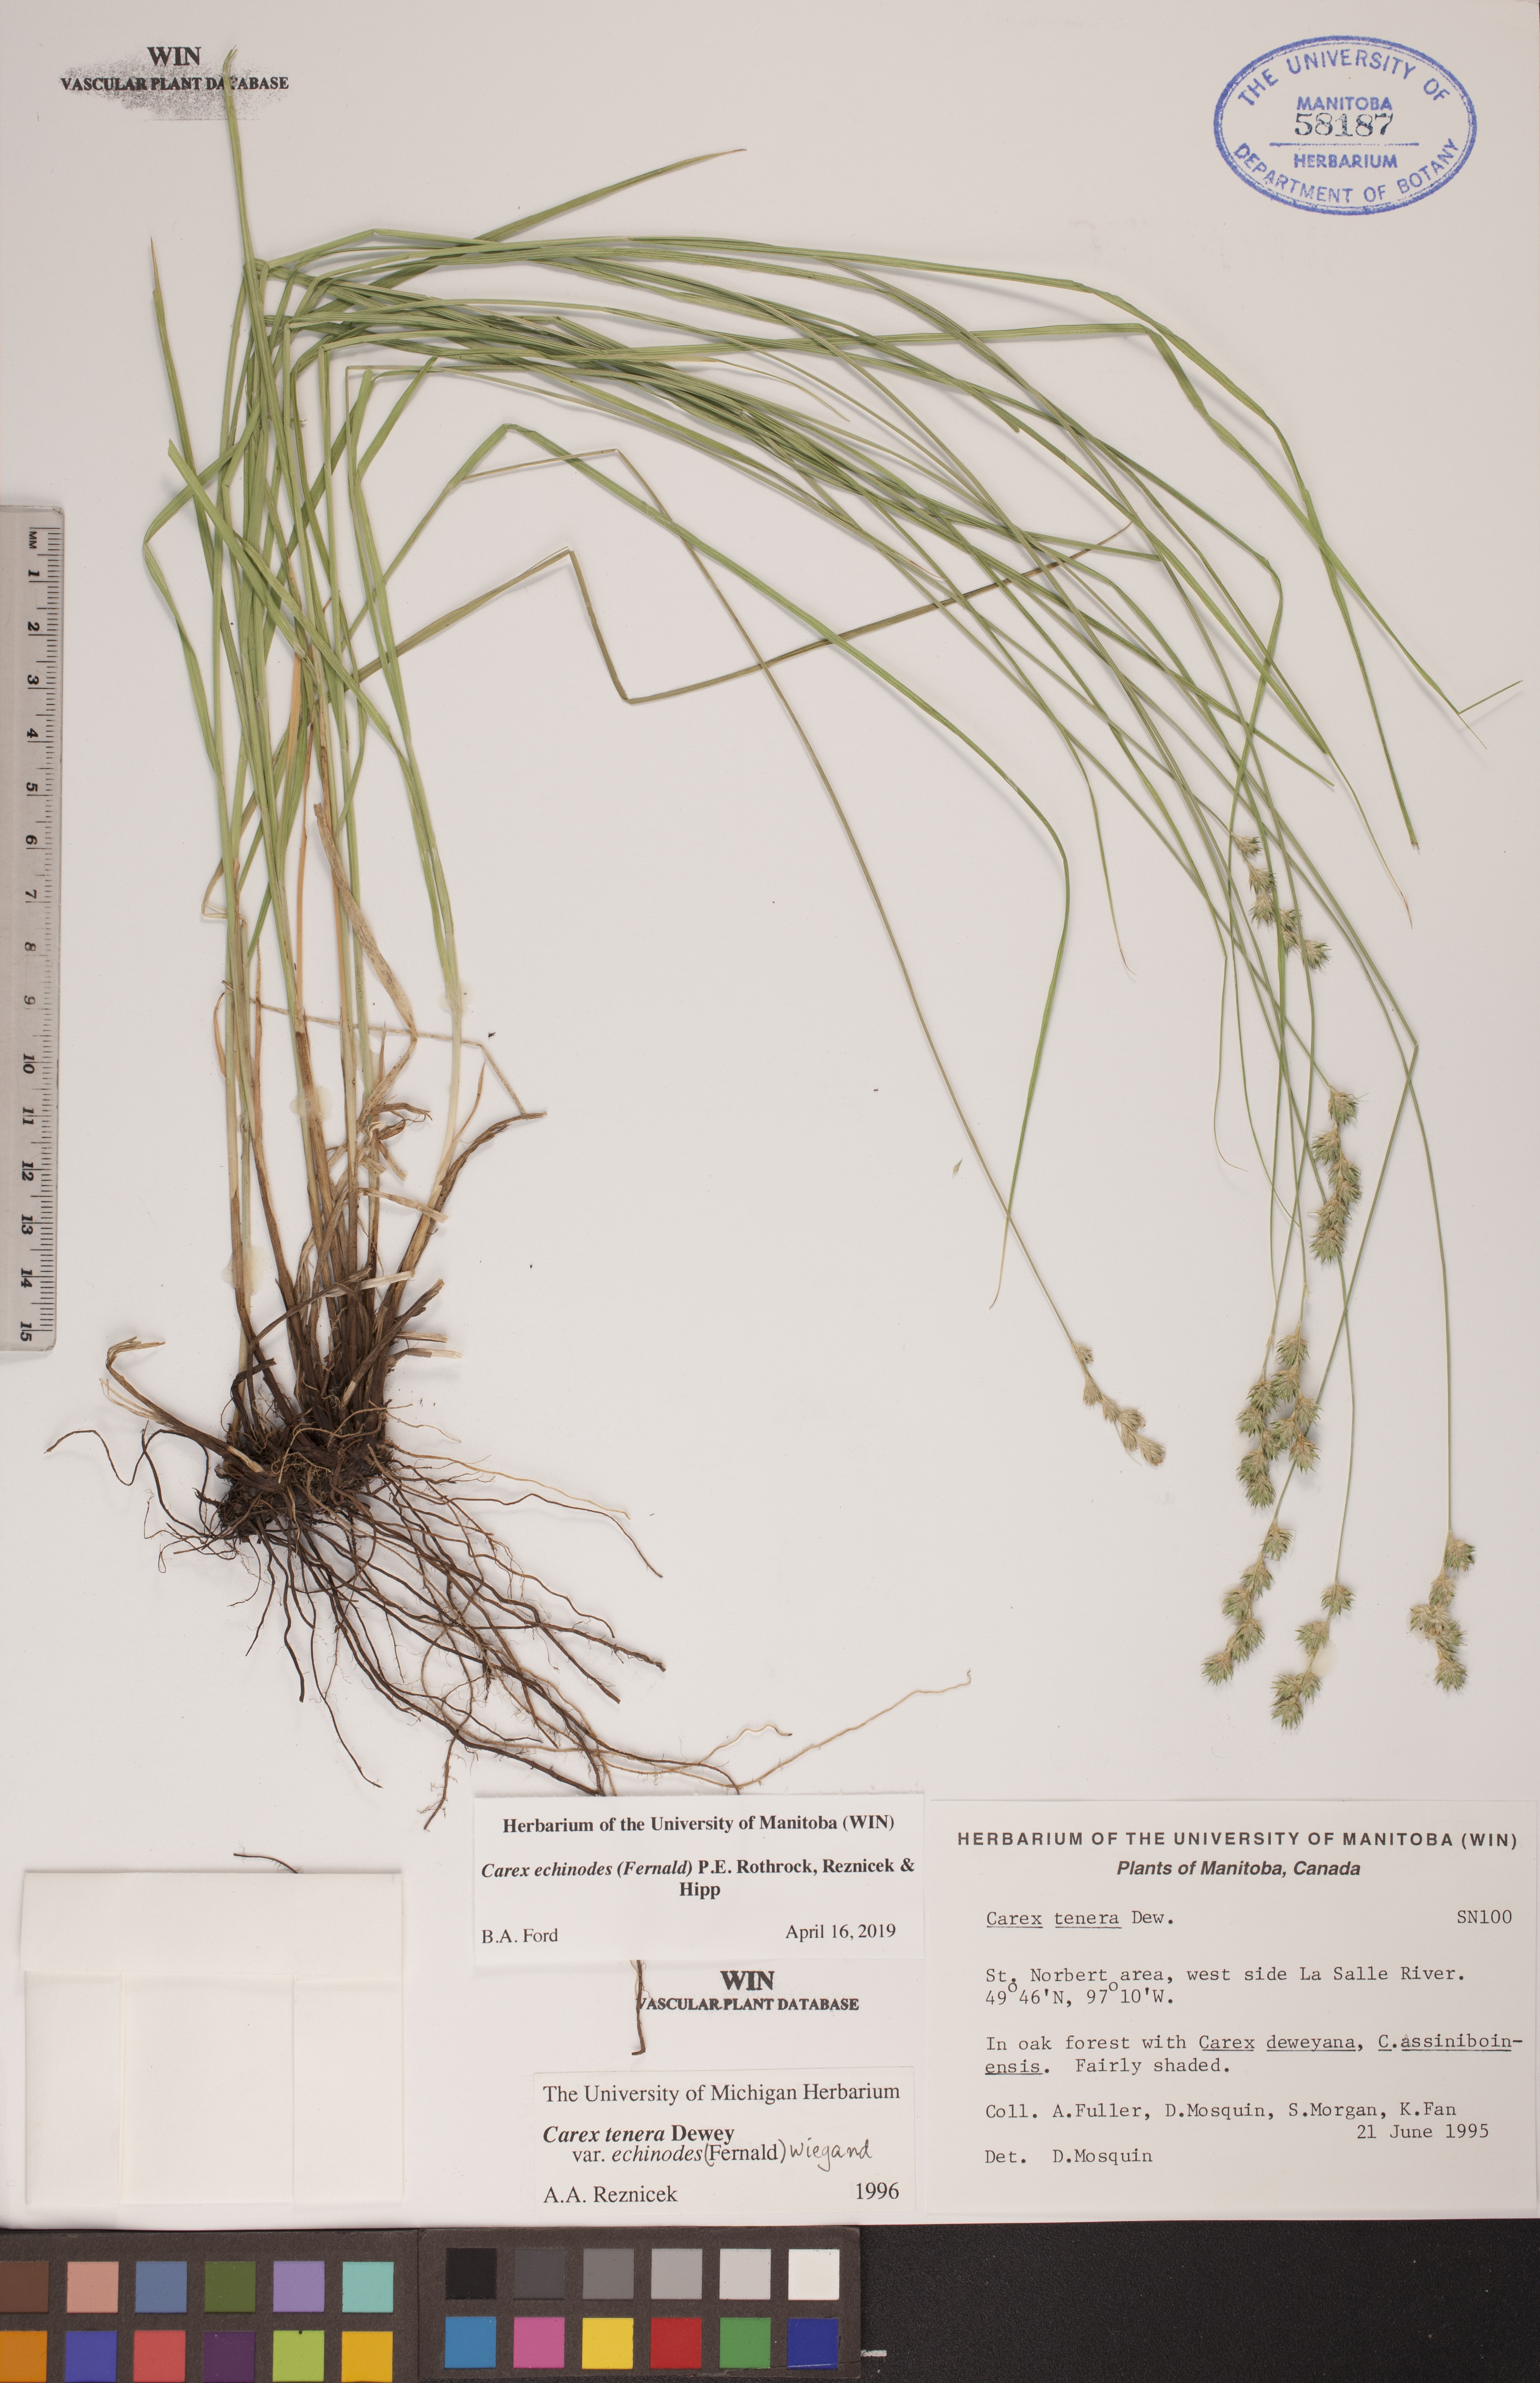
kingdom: Plantae
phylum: Tracheophyta
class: Liliopsida
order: Poales
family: Cyperaceae
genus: Carex
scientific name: Carex echinodes
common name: Marsh straw sedge
